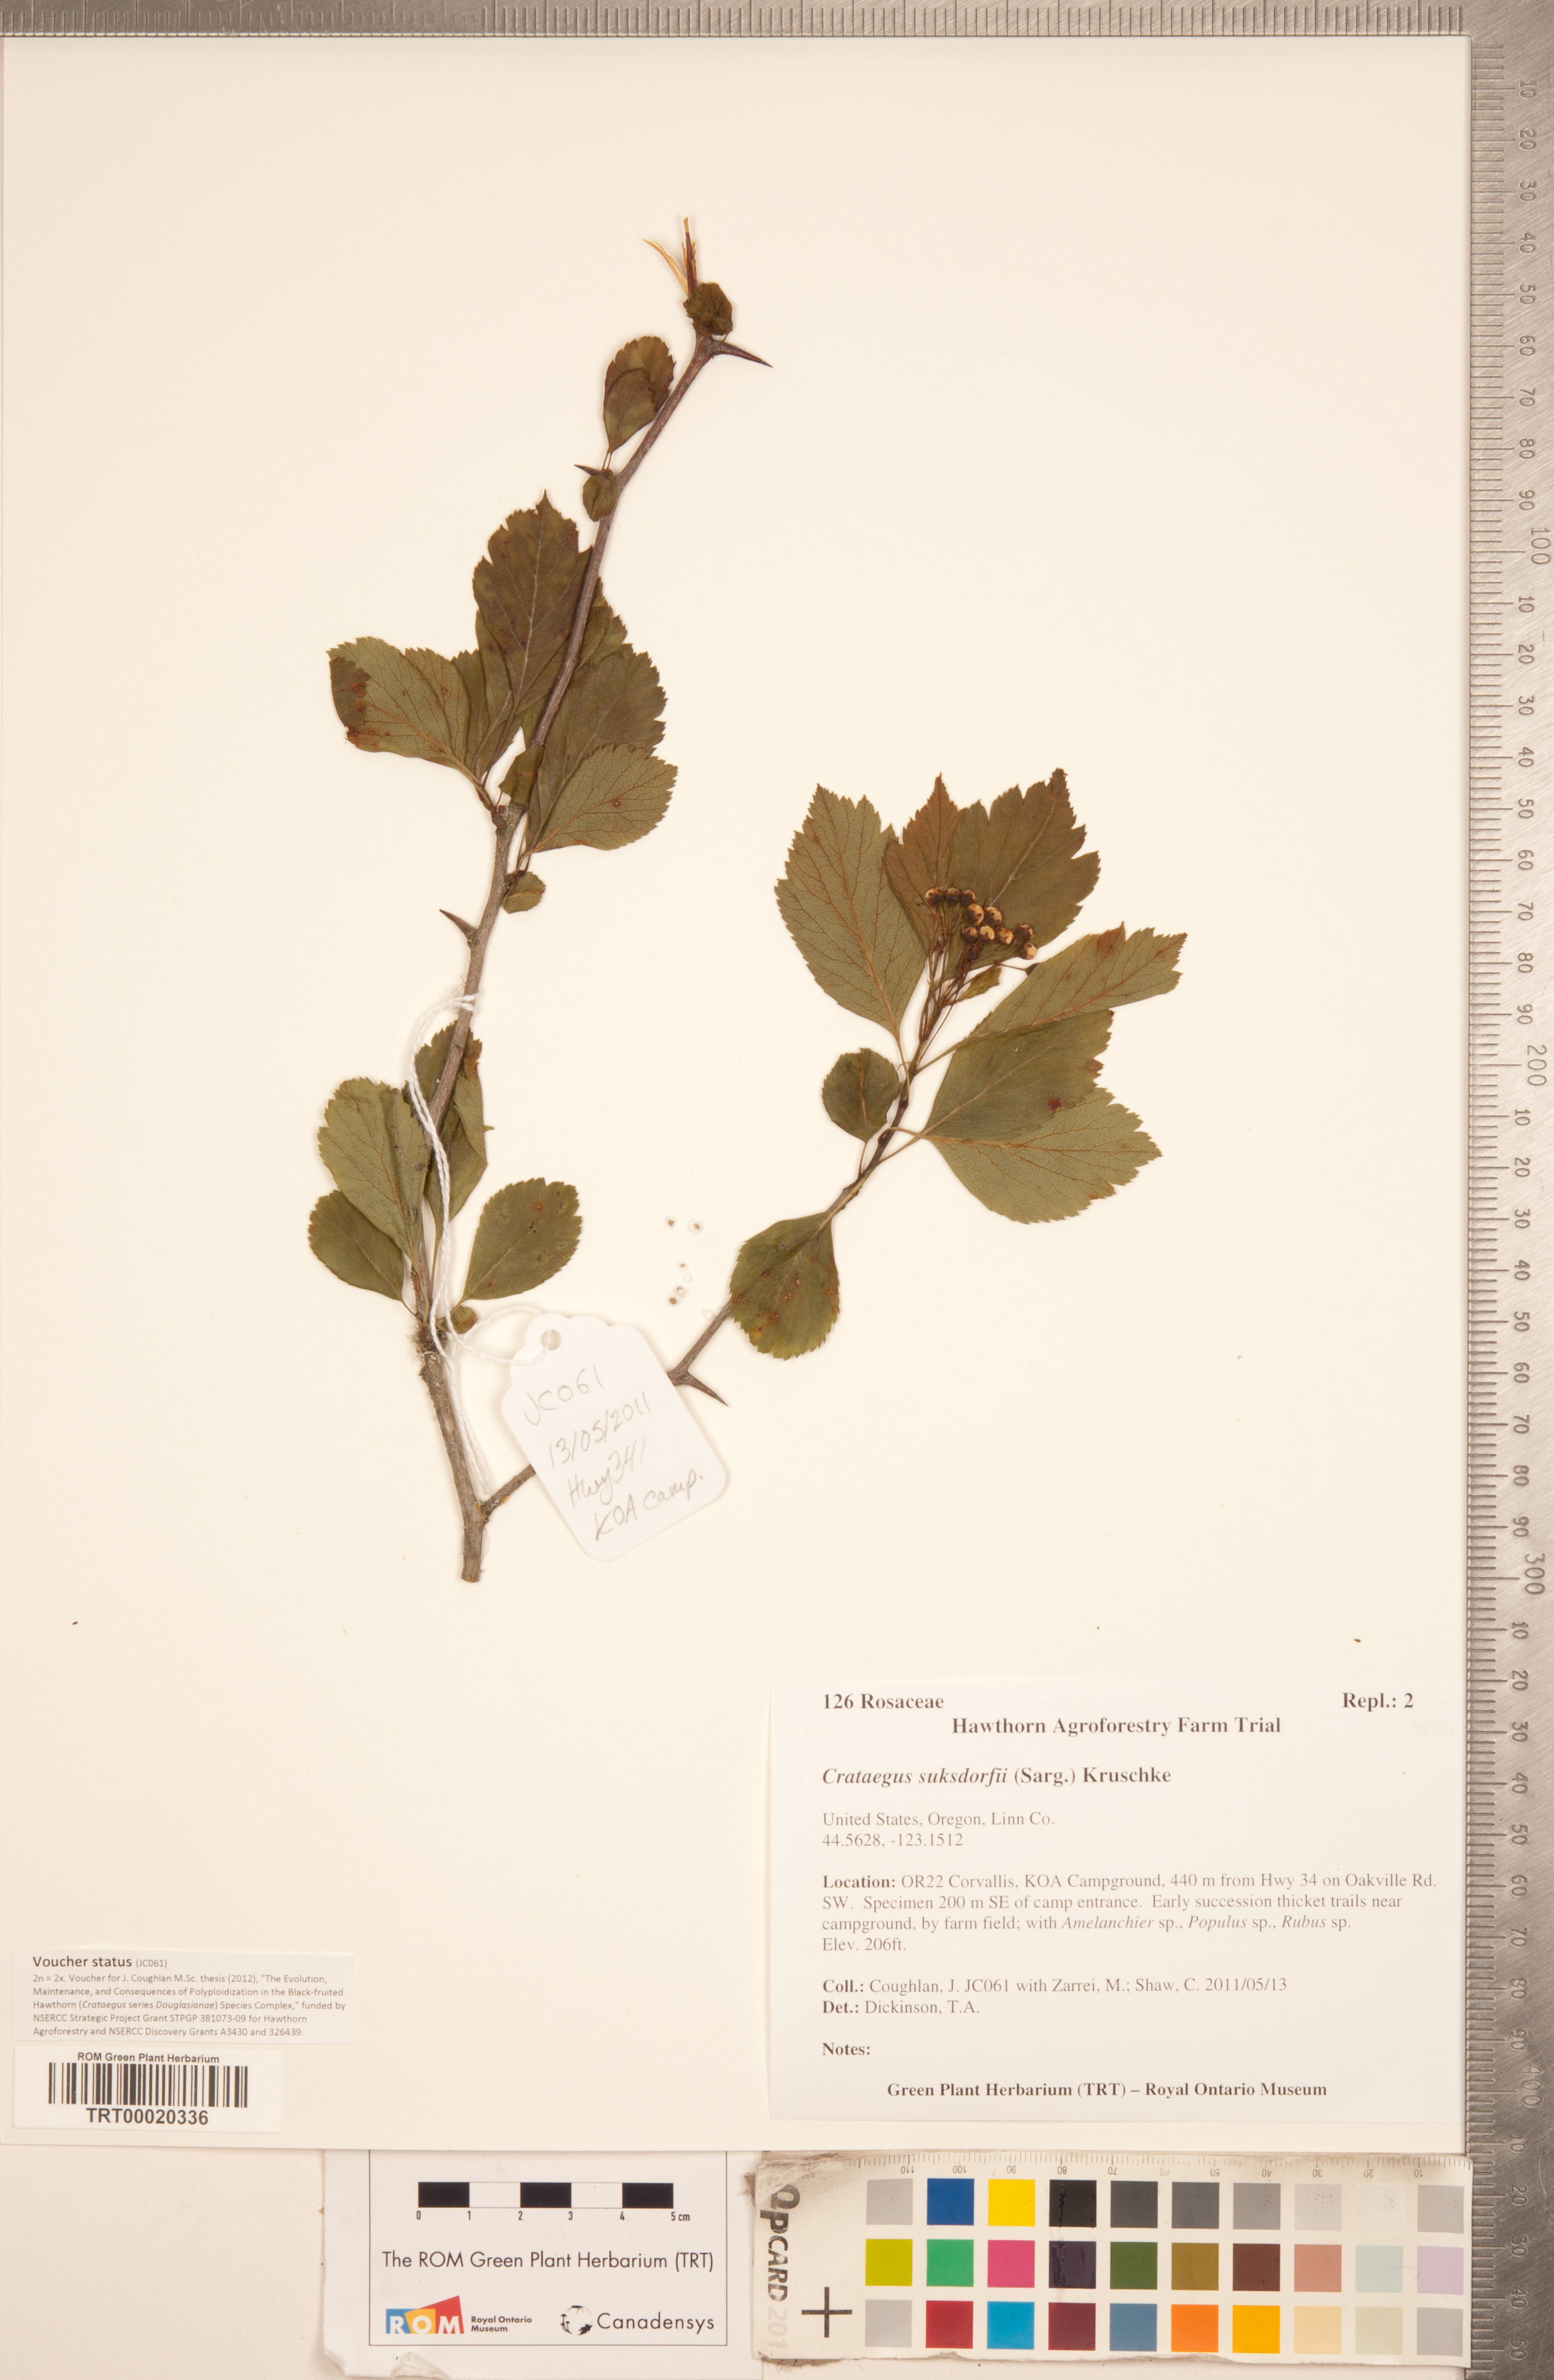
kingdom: Plantae
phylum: Tracheophyta
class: Magnoliopsida
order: Rosales
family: Rosaceae
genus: Crataegus
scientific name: Crataegus gaylussacia
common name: Huckleberry hawthorn
